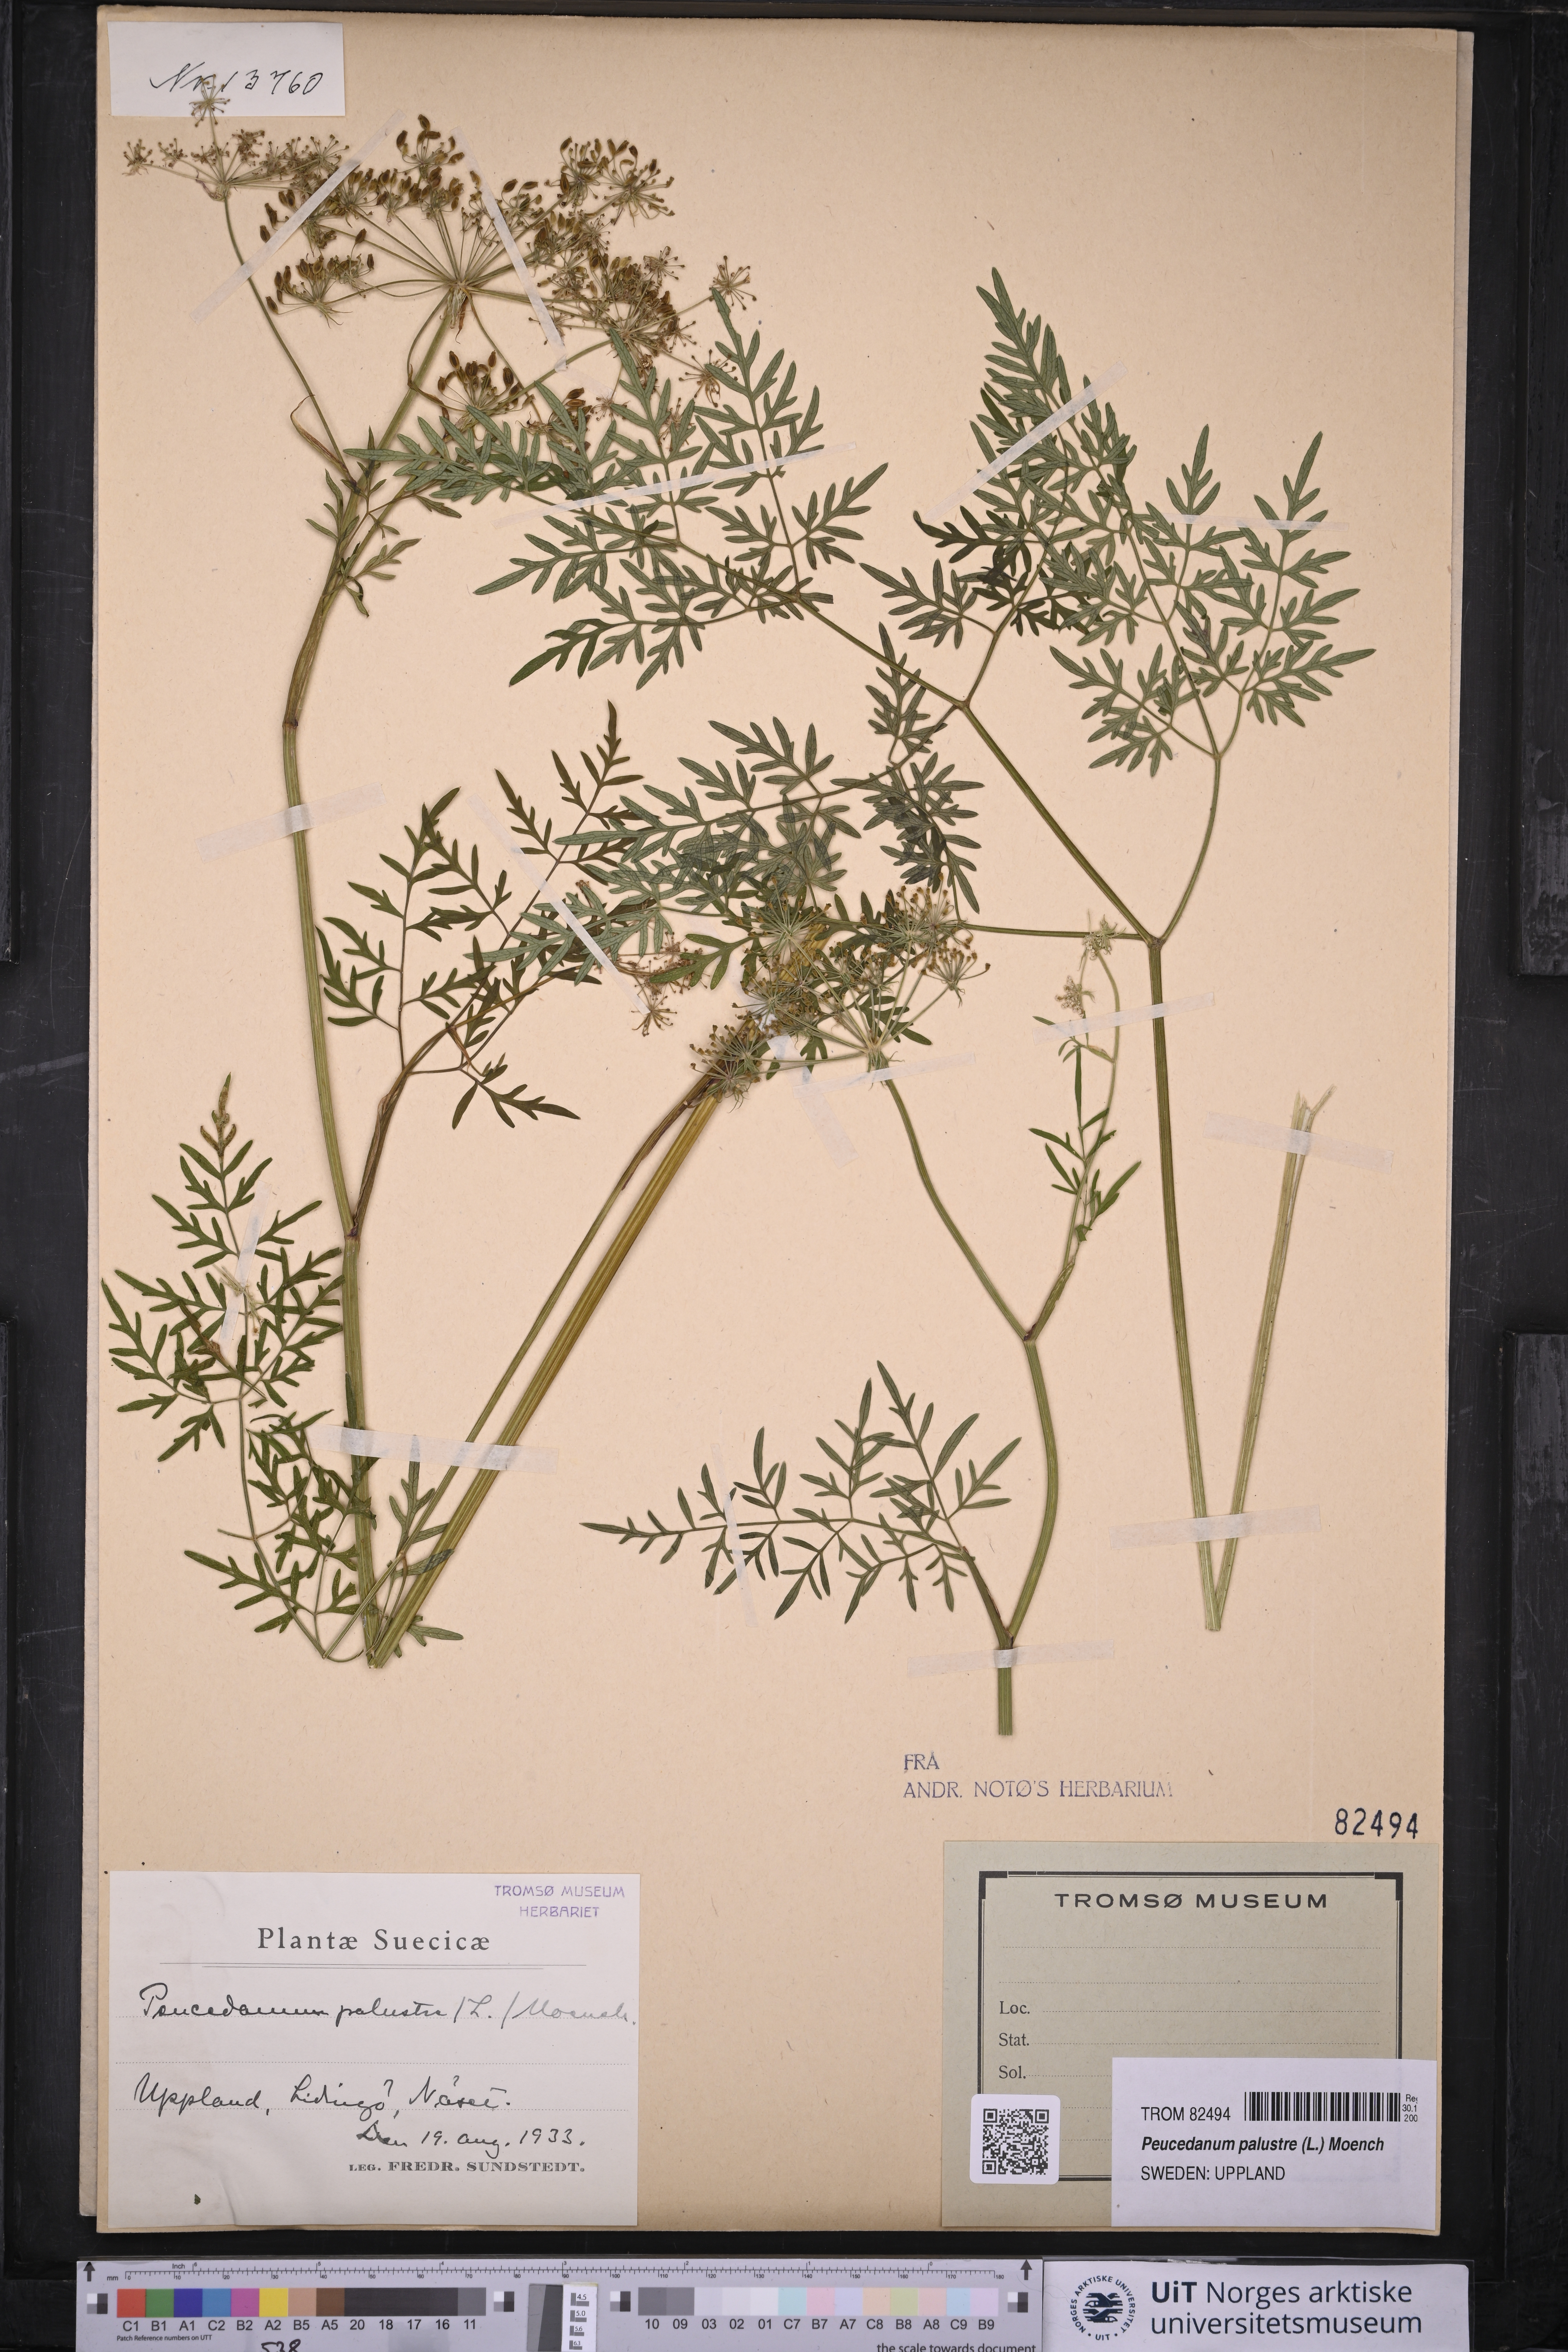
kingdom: Plantae
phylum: Tracheophyta
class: Magnoliopsida
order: Apiales
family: Apiaceae
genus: Thysselinum
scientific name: Thysselinum palustre
